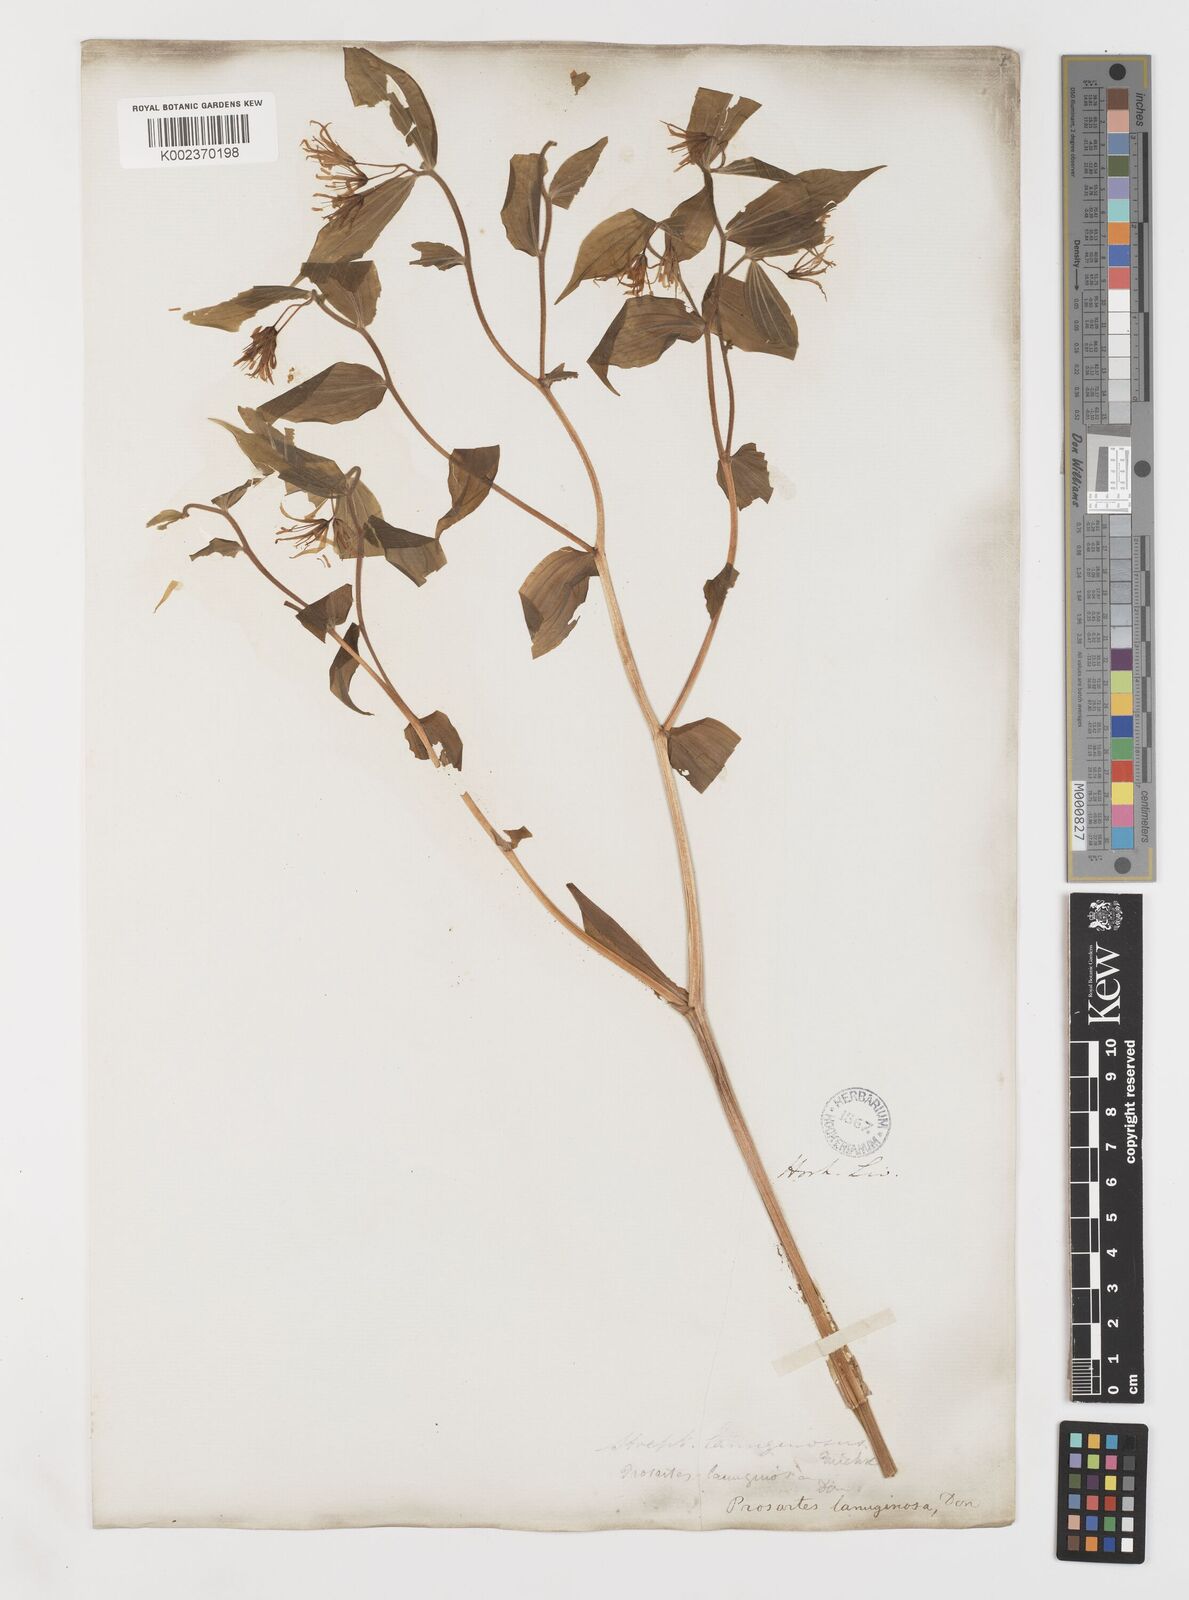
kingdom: Plantae
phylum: Tracheophyta
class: Liliopsida
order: Liliales
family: Liliaceae
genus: Prosartes
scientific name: Prosartes lanuginosa
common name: Hairy mandarin
